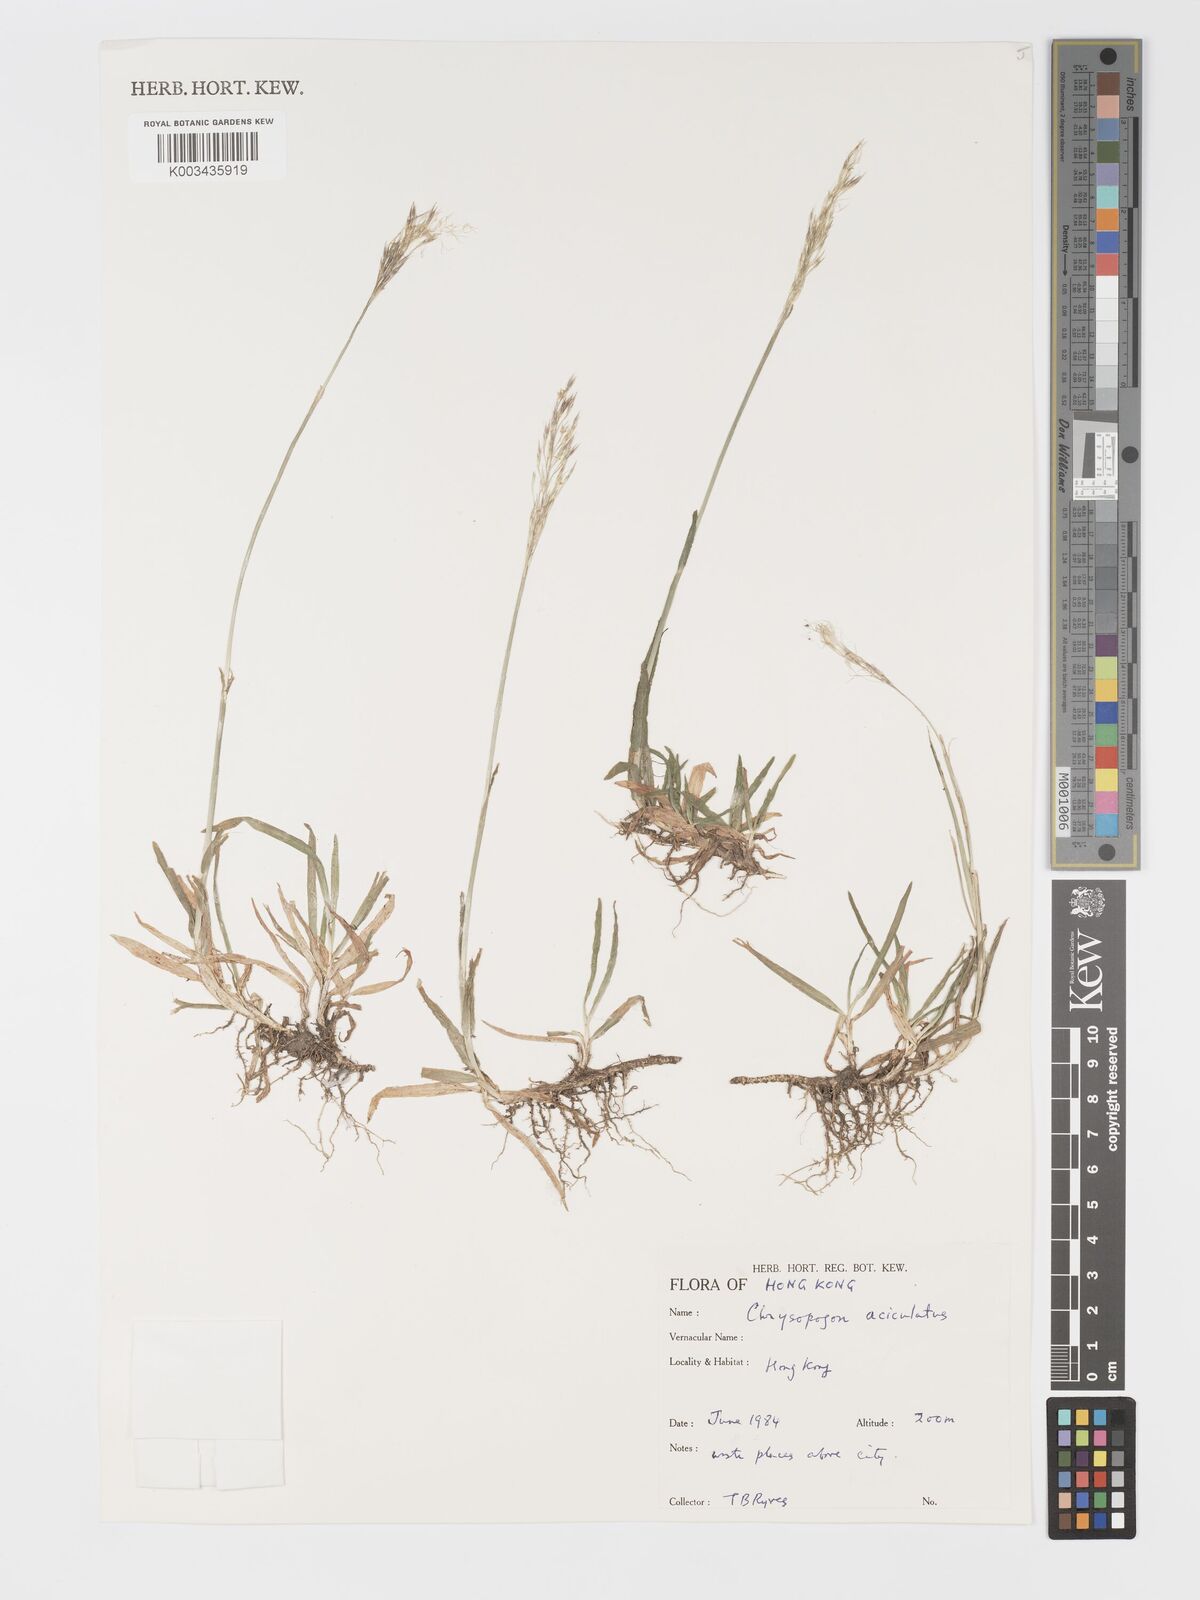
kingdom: Plantae
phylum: Tracheophyta
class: Liliopsida
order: Poales
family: Poaceae
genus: Chrysopogon
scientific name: Chrysopogon aciculatus
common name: Pilipiliula
